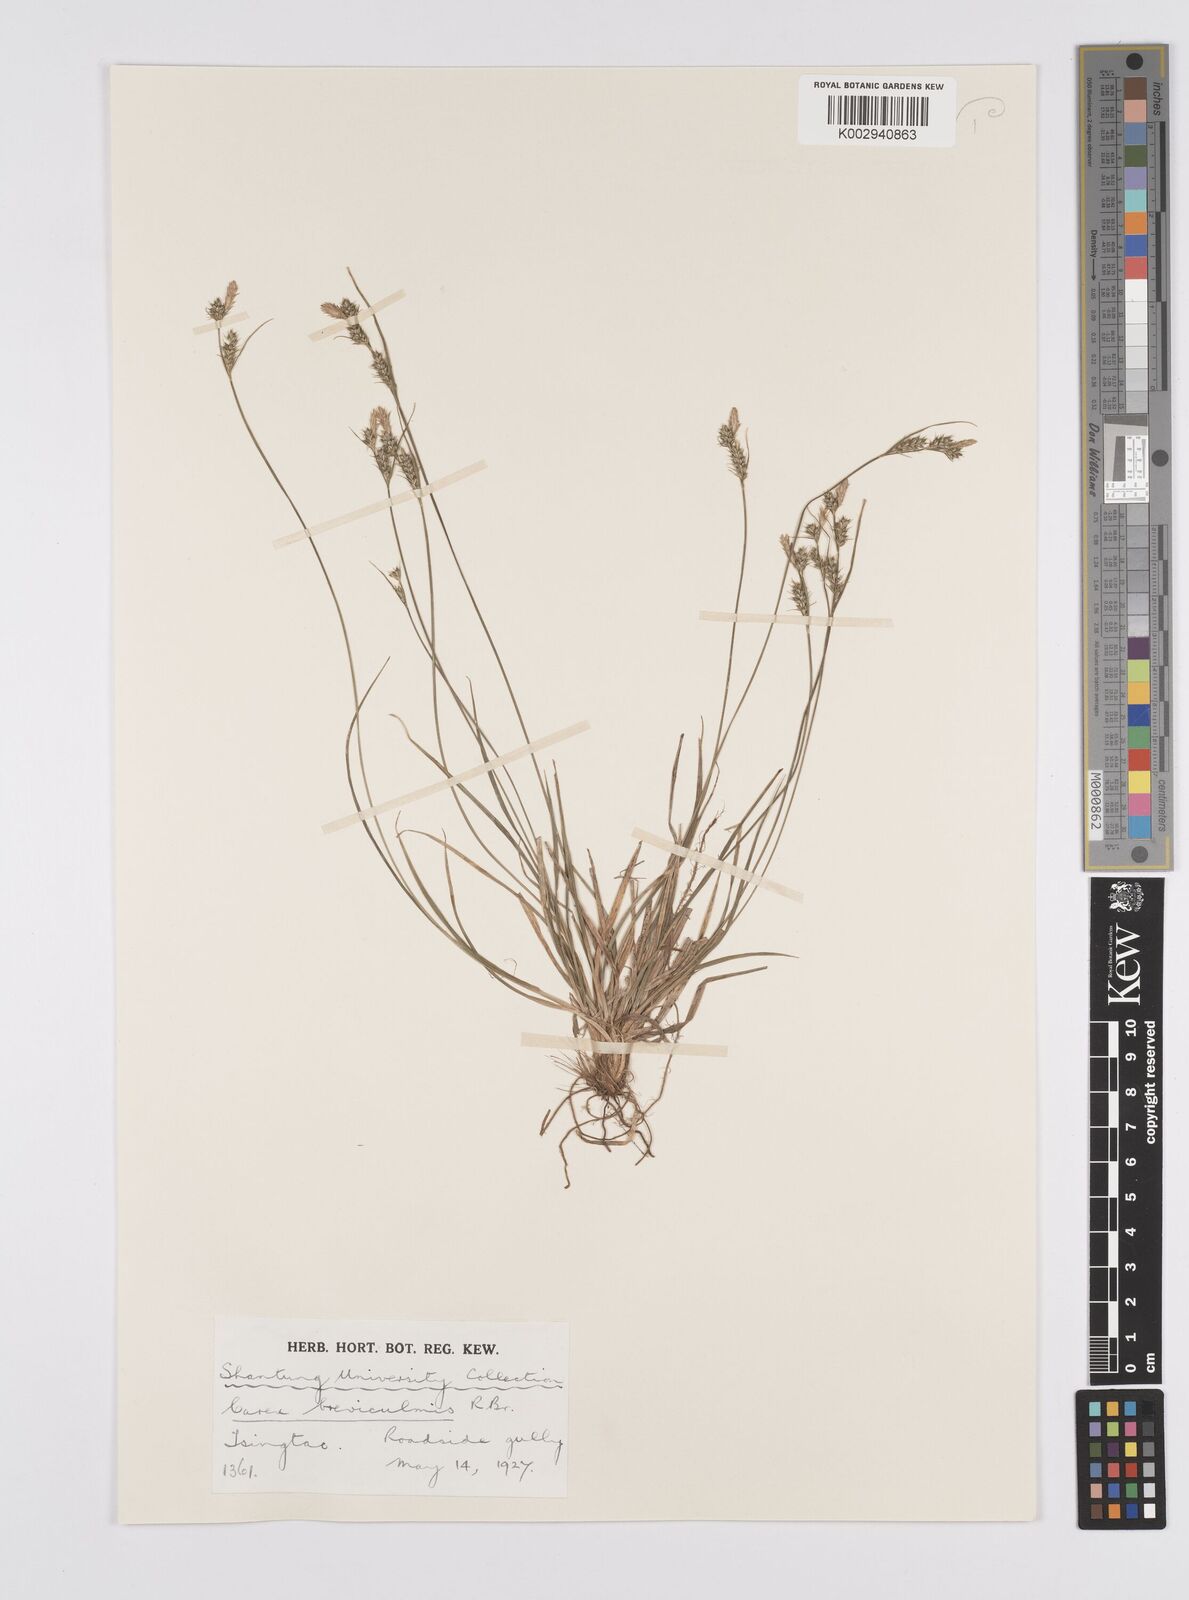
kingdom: Plantae
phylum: Tracheophyta
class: Liliopsida
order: Poales
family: Cyperaceae
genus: Carex
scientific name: Carex breviculmis
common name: Asian shortstem sedge
